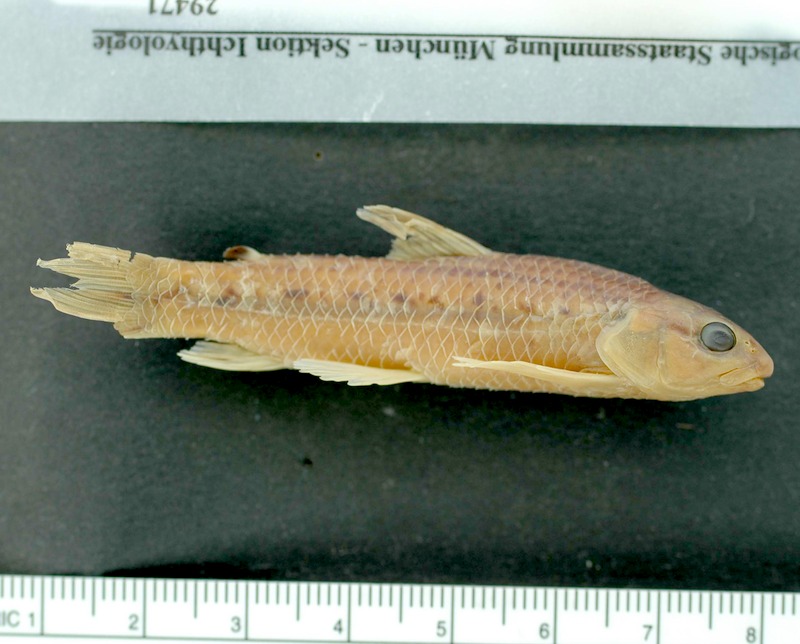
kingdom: Animalia
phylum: Chordata
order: Characiformes
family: Crenuchidae
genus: Characidium
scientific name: Characidium schindleri
